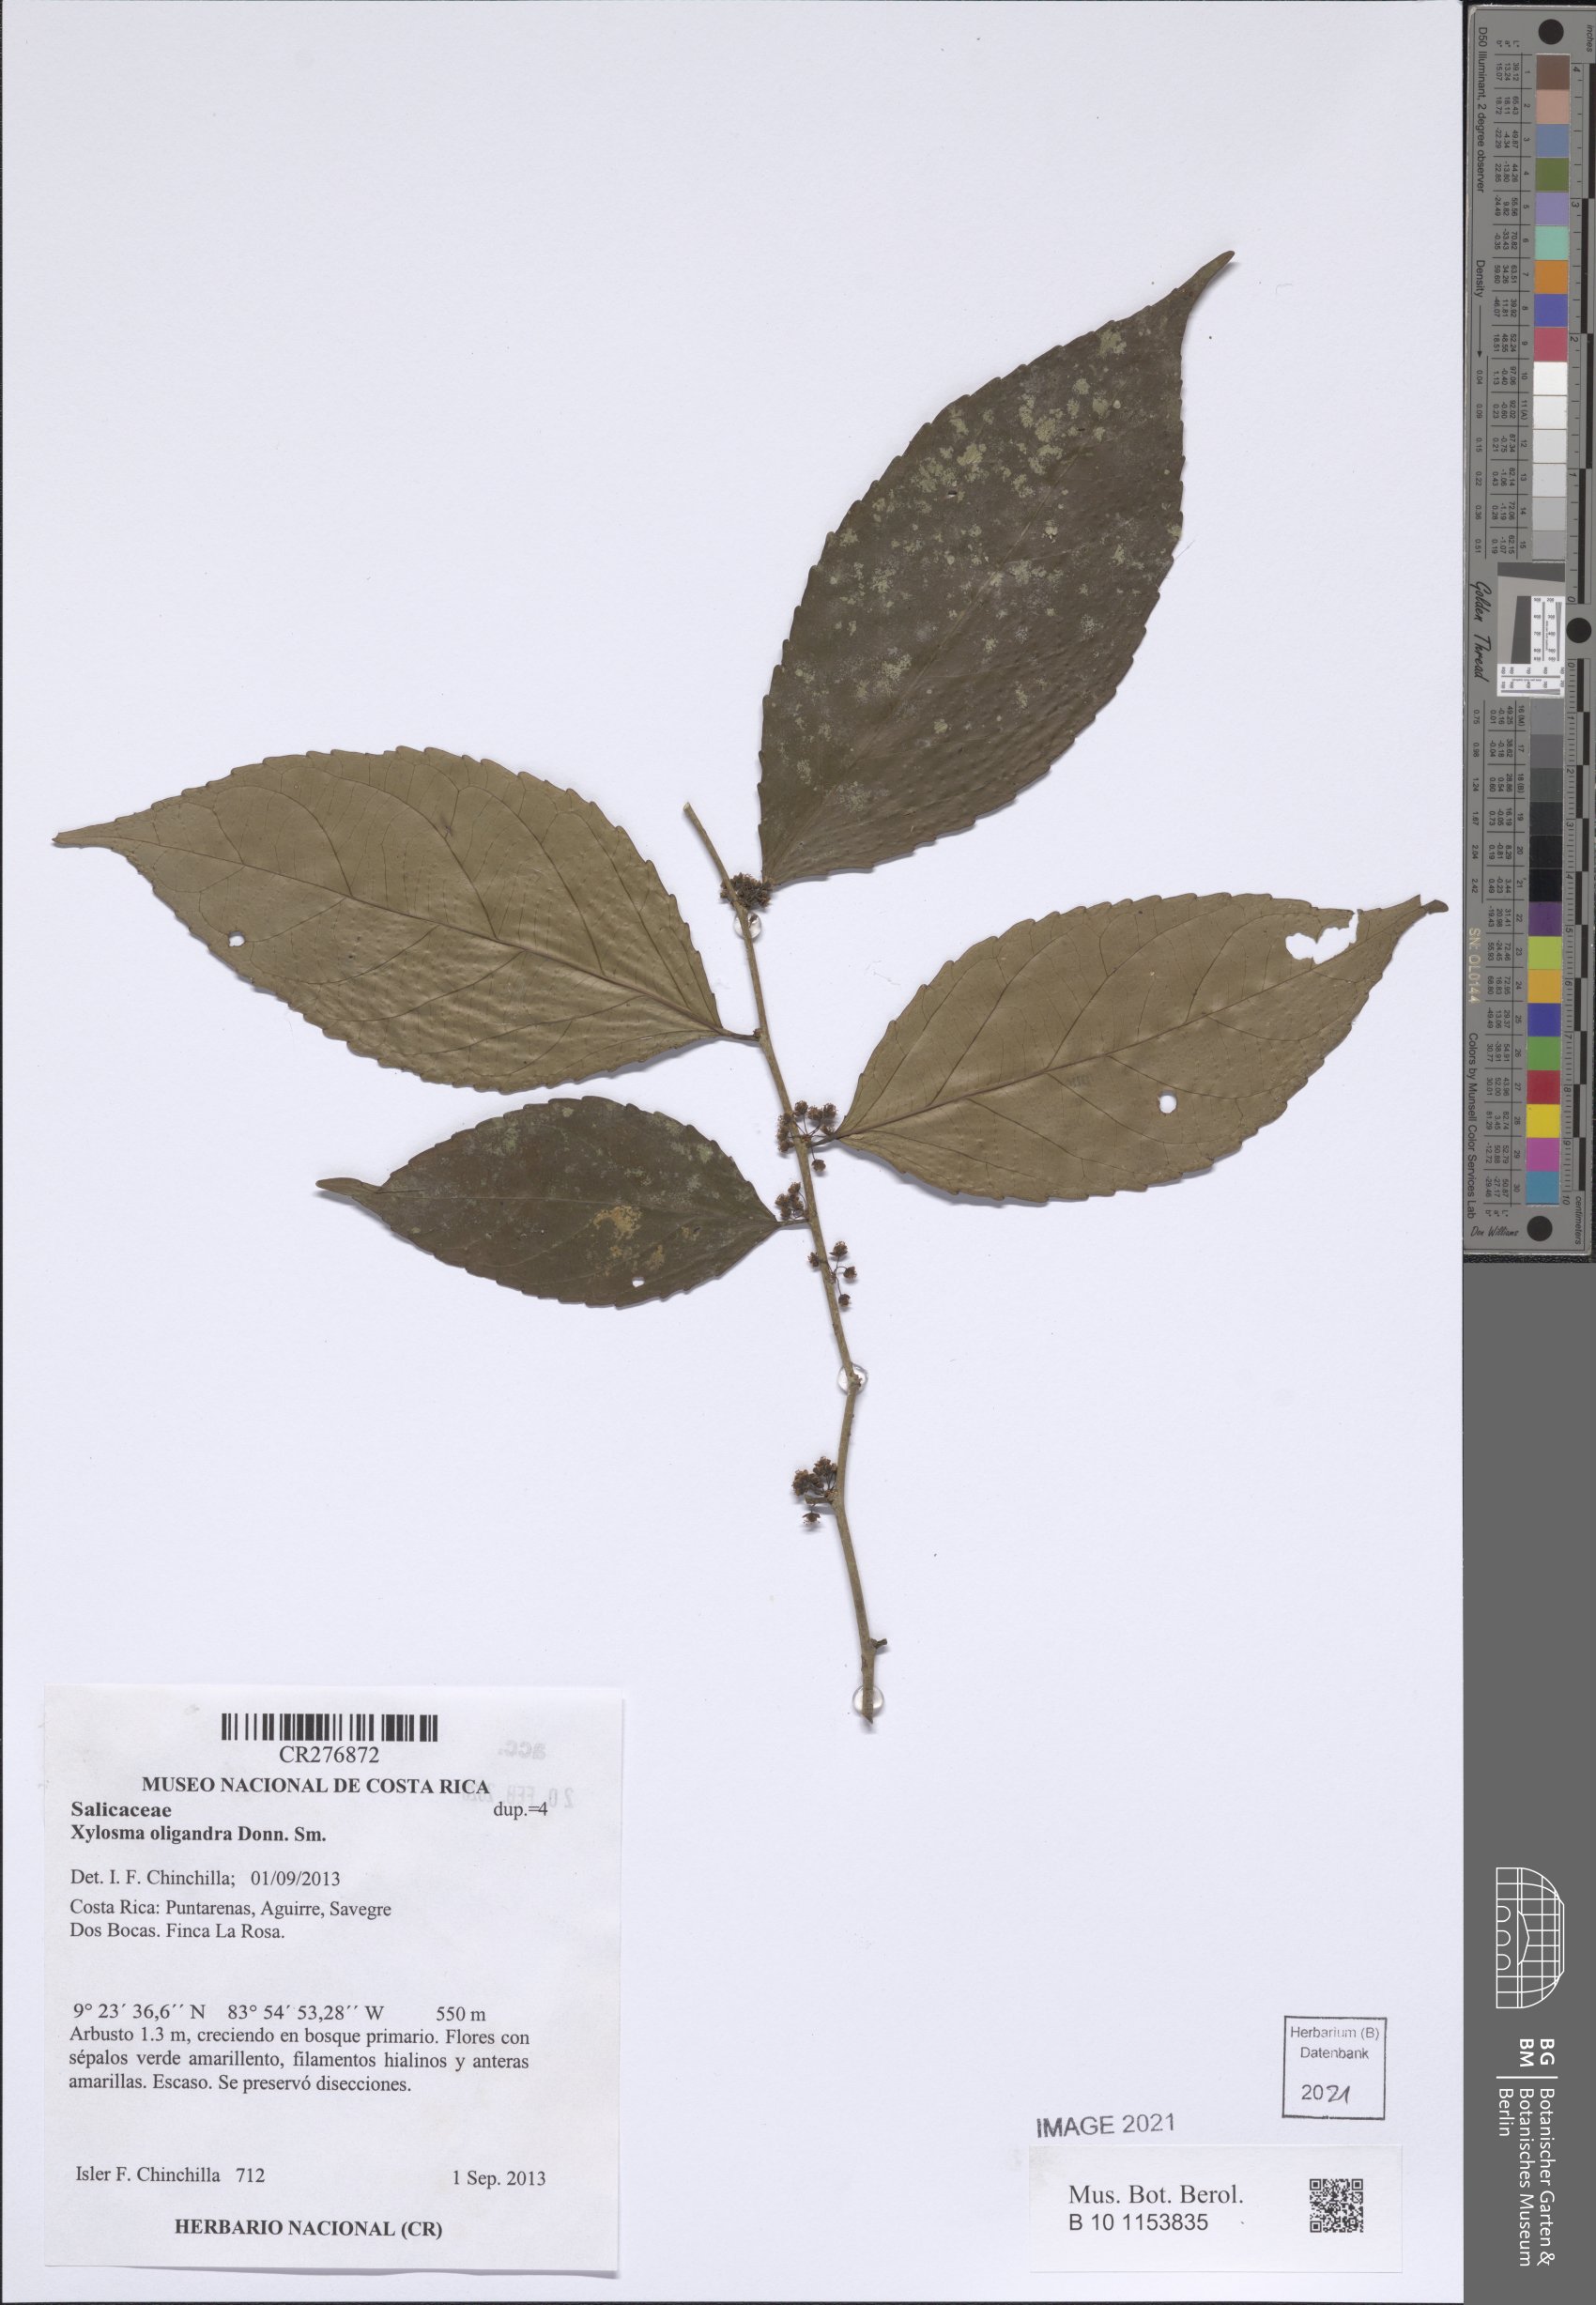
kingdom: Plantae
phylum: Tracheophyta
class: Magnoliopsida
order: Malpighiales
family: Salicaceae
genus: Xylosma
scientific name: Xylosma oligandra
